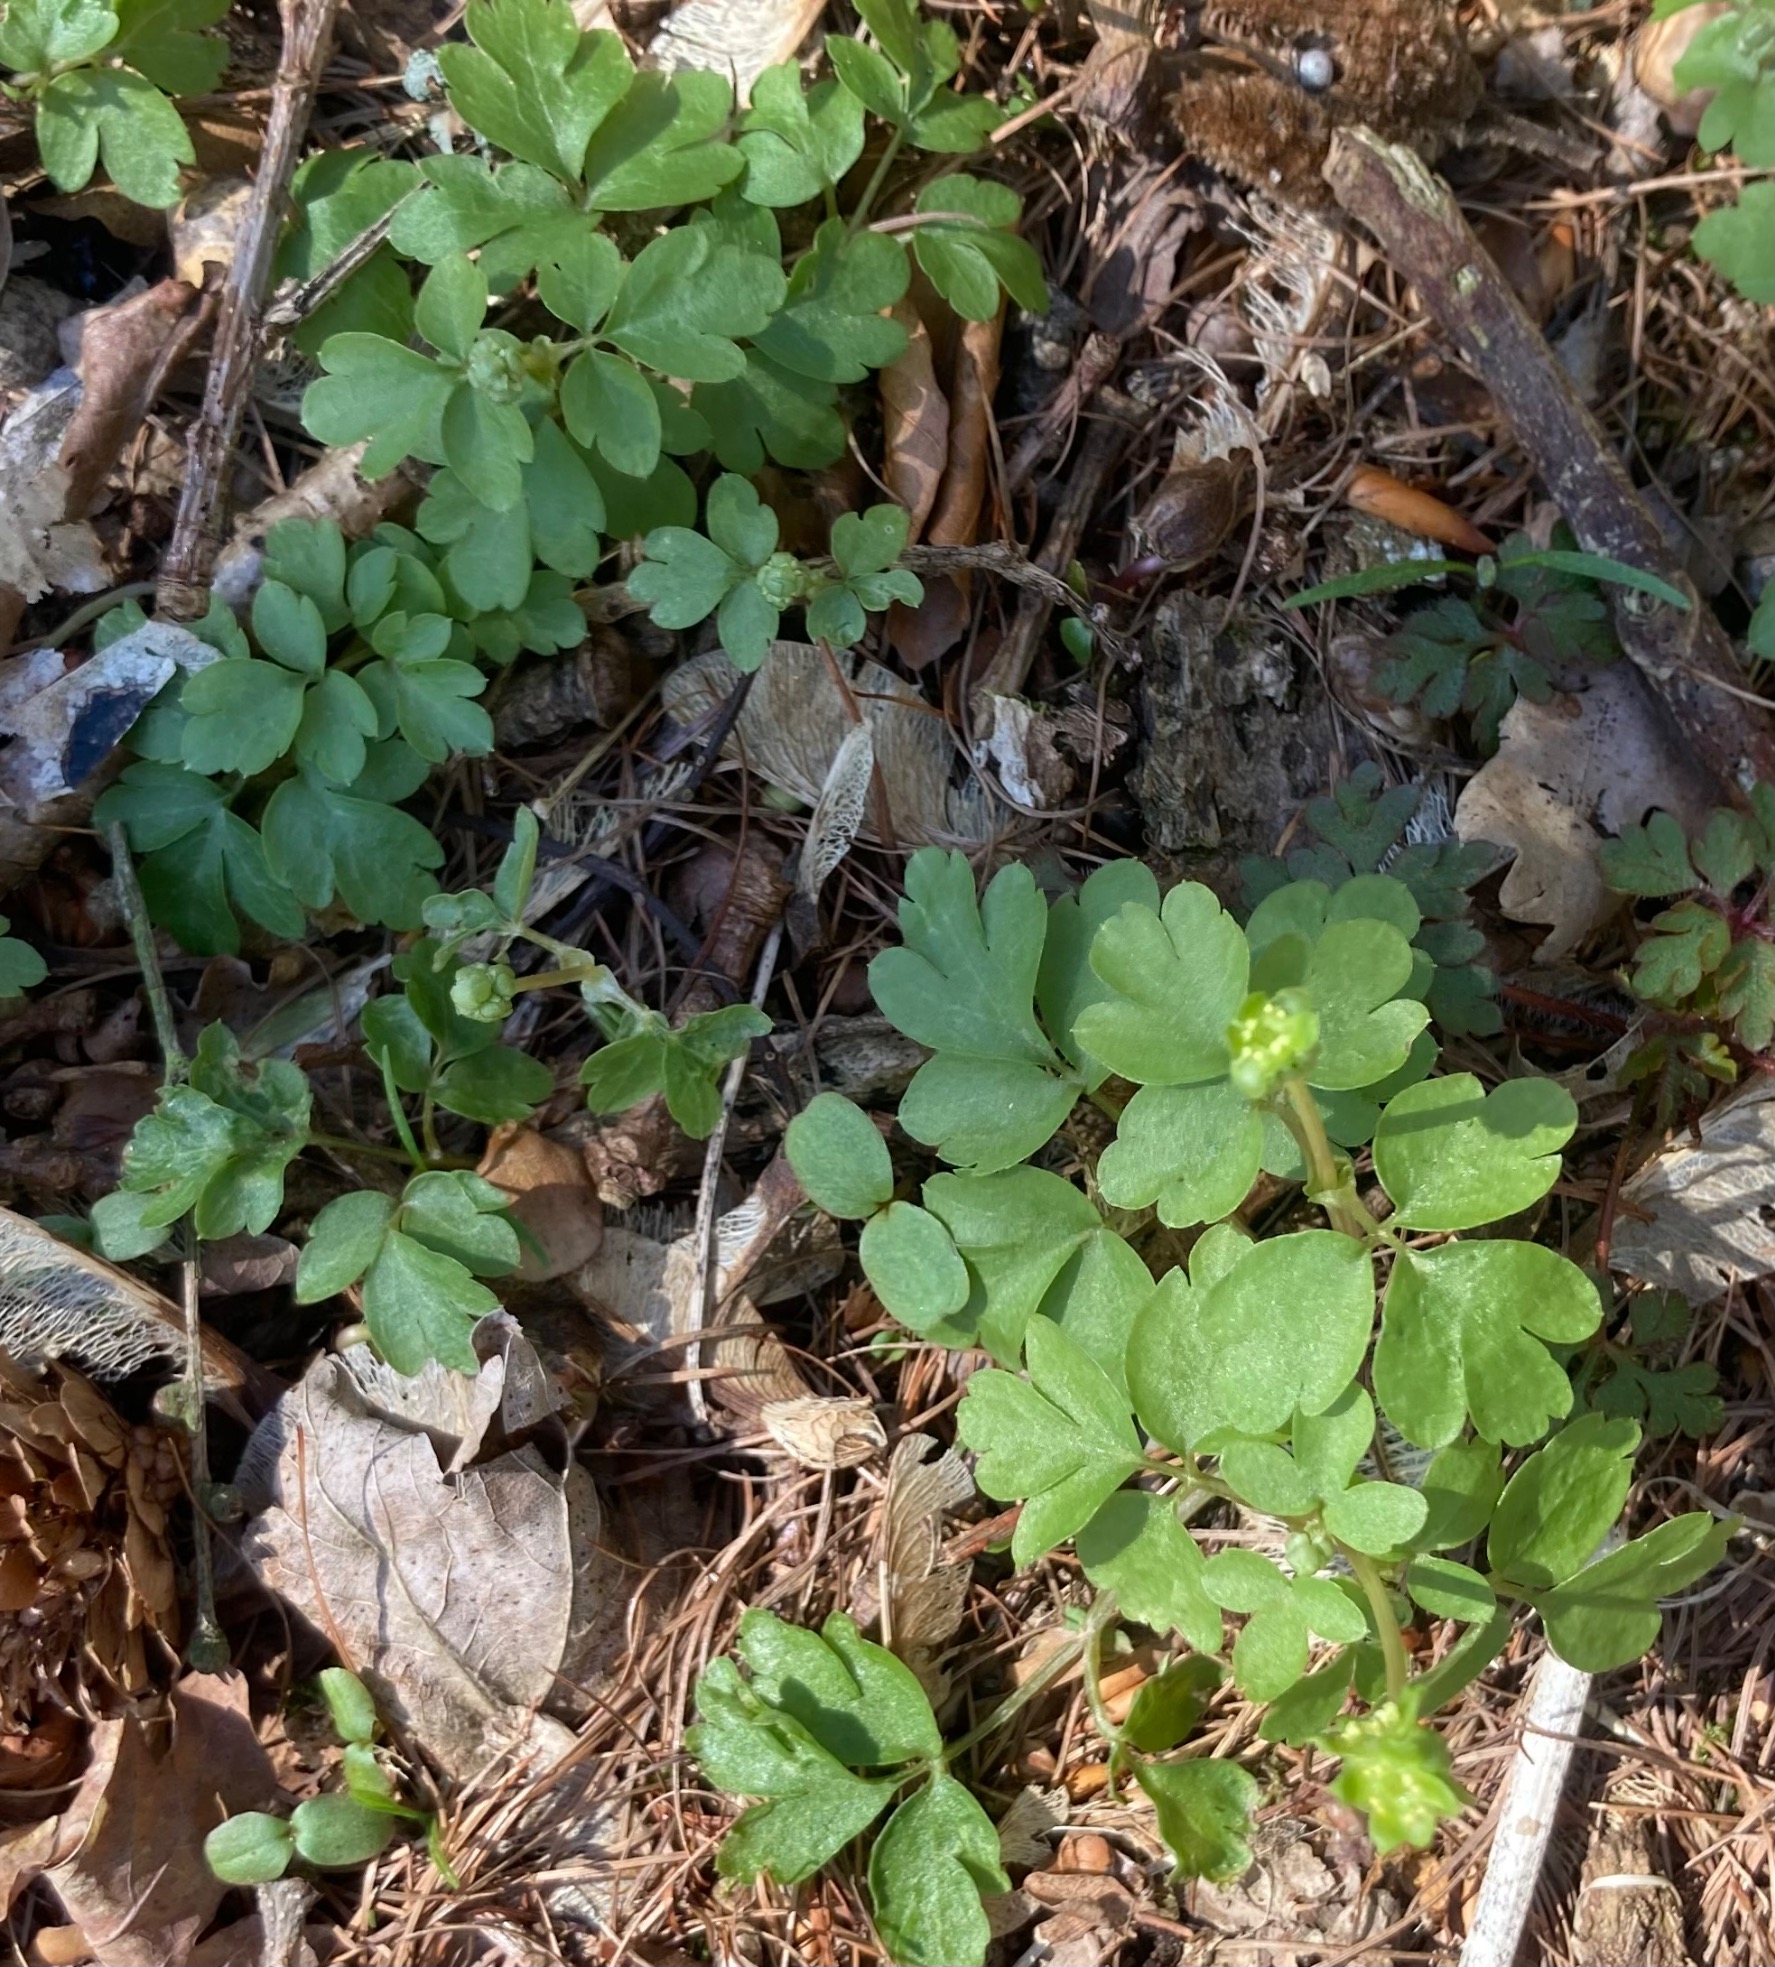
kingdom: Plantae
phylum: Tracheophyta
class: Magnoliopsida
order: Dipsacales
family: Viburnaceae
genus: Adoxa
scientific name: Adoxa moschatellina
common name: Desmerurt
